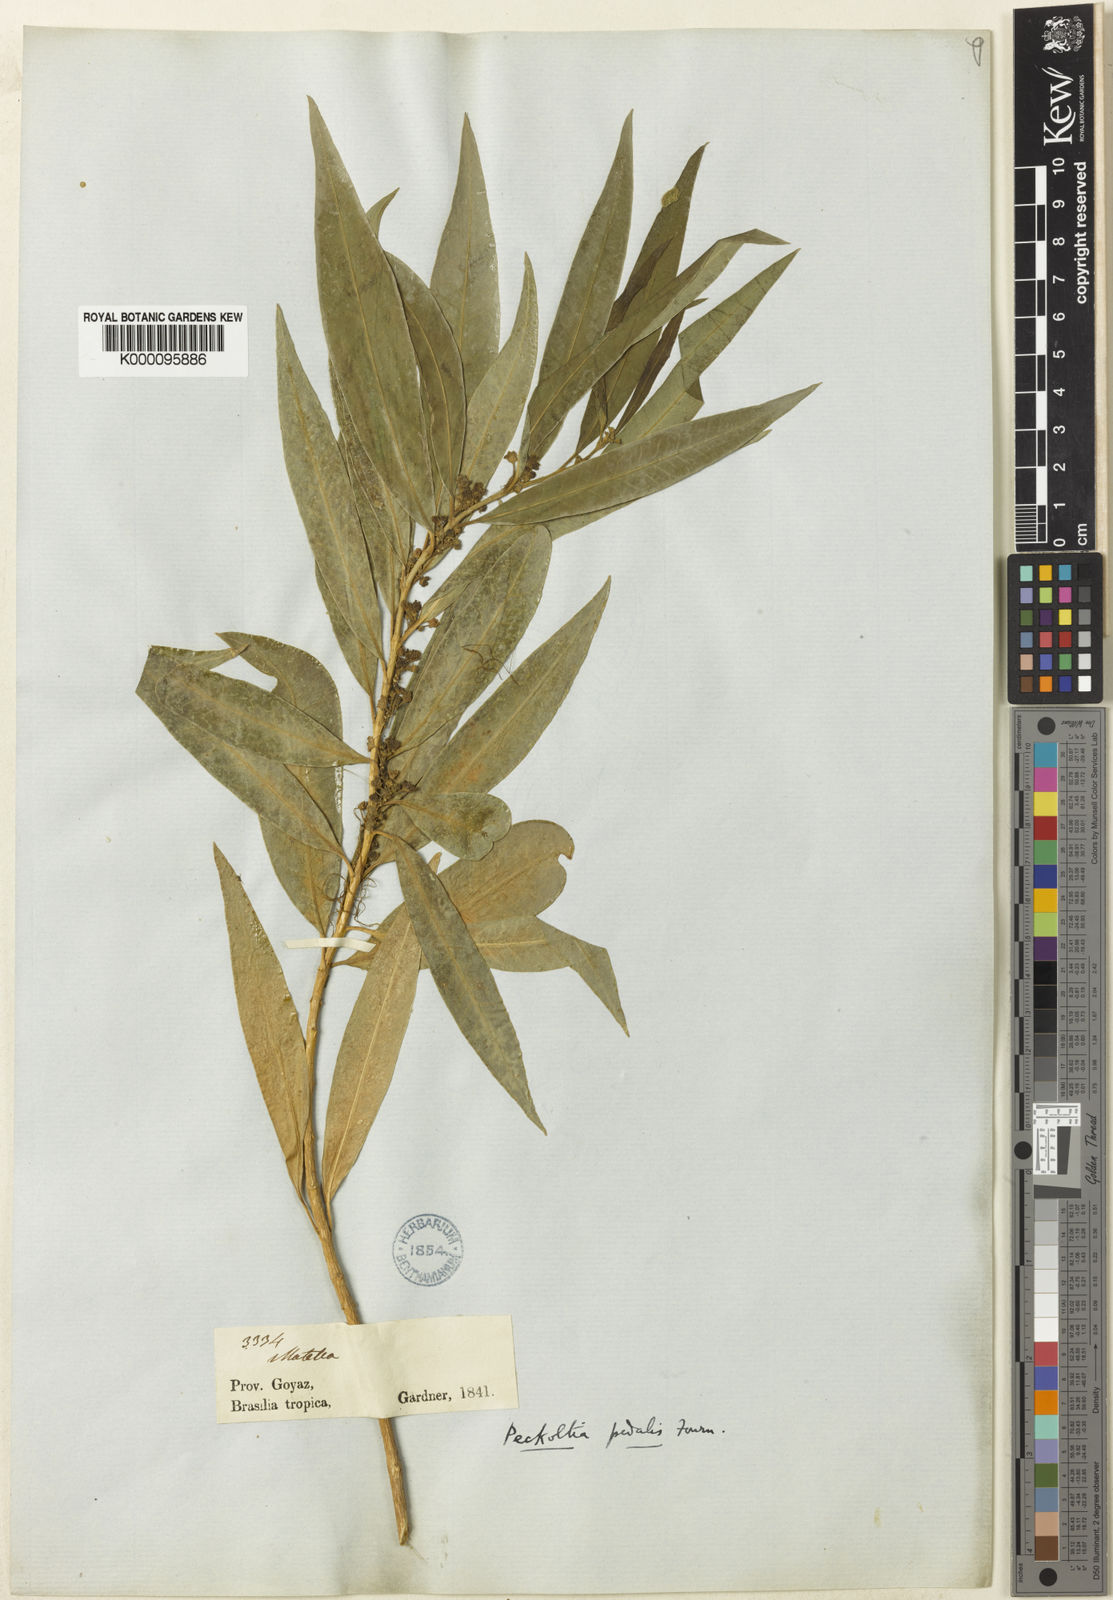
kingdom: Plantae
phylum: Tracheophyta
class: Magnoliopsida
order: Gentianales
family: Apocynaceae
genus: Matelea
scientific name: Matelea pedalis
